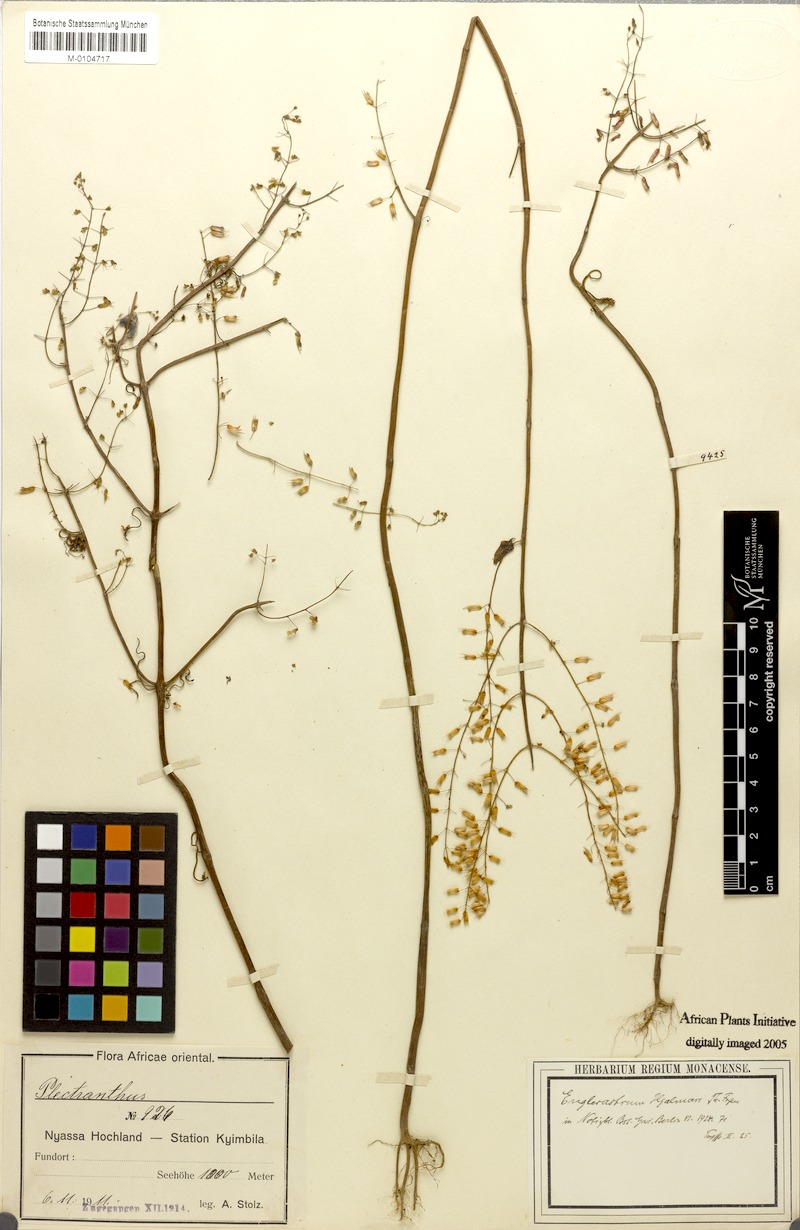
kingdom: Plantae
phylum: Tracheophyta
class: Magnoliopsida
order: Lamiales
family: Lamiaceae
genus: Coleus
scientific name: Coleus efoliatus
